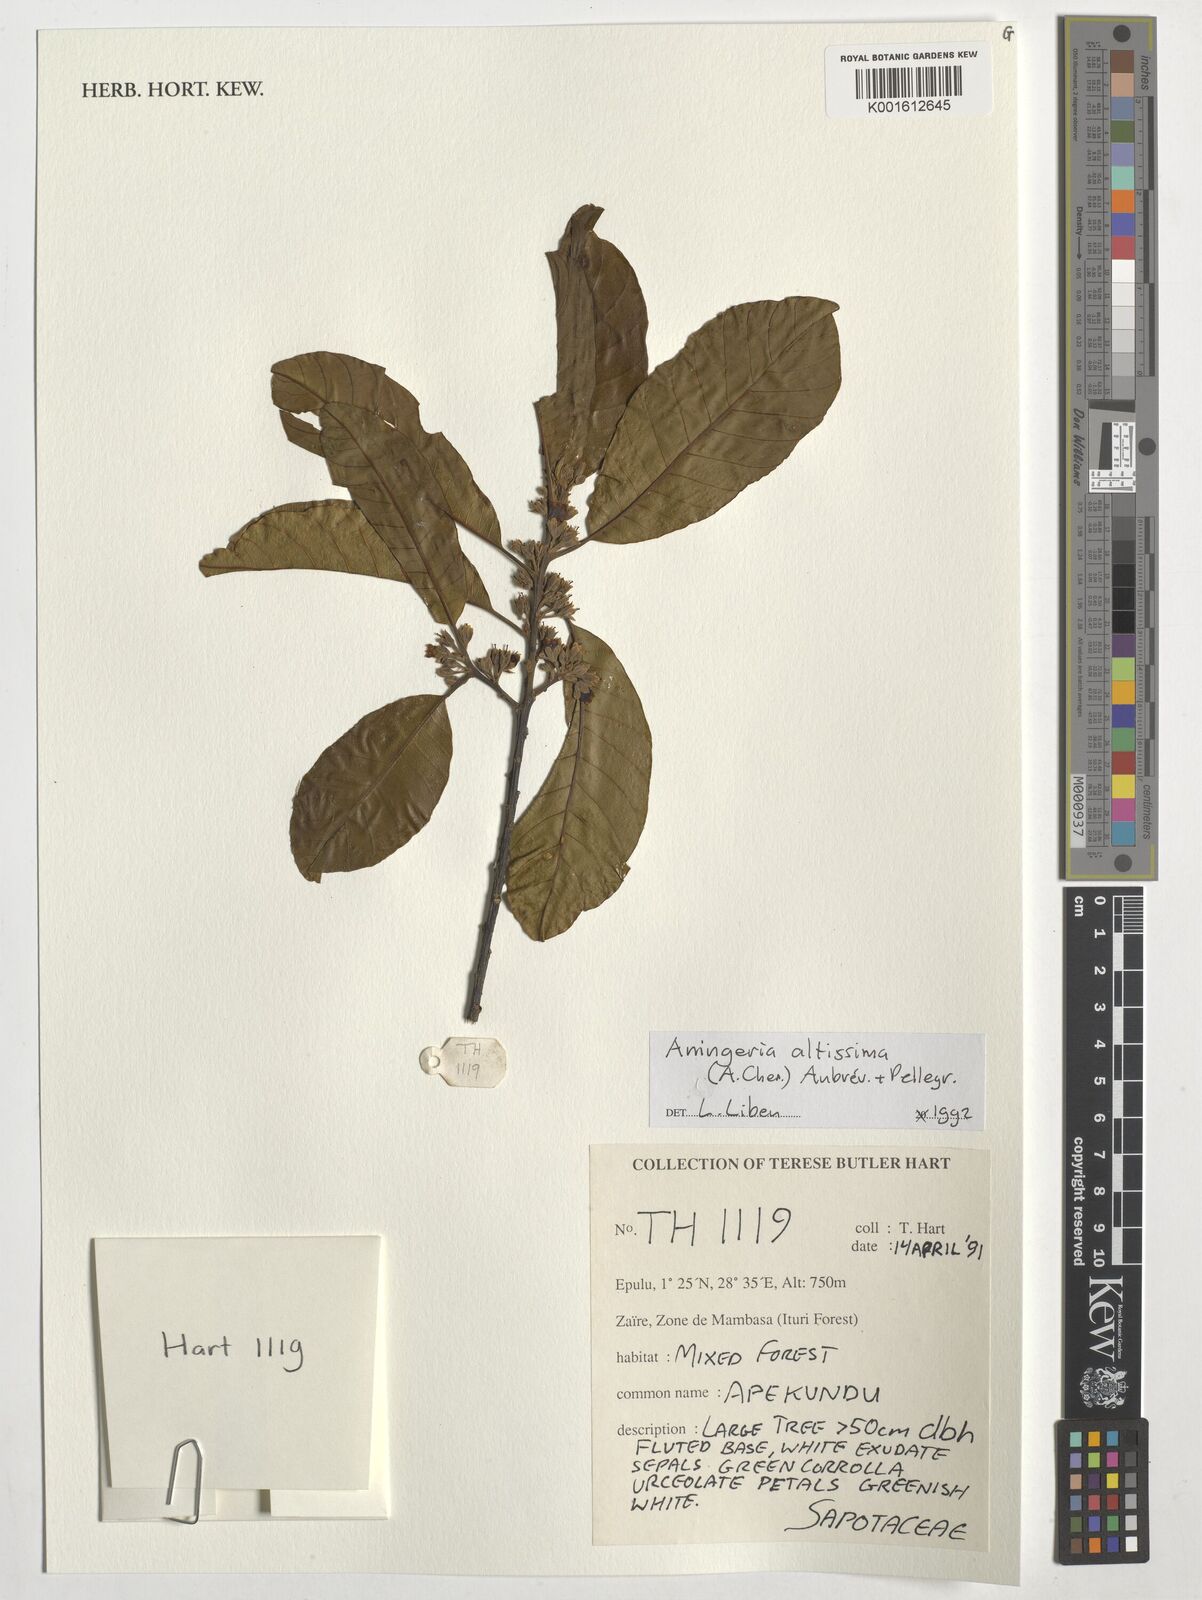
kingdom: Plantae
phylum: Tracheophyta
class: Magnoliopsida
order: Ericales
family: Sapotaceae
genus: Aningeria
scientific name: Aningeria altissima
